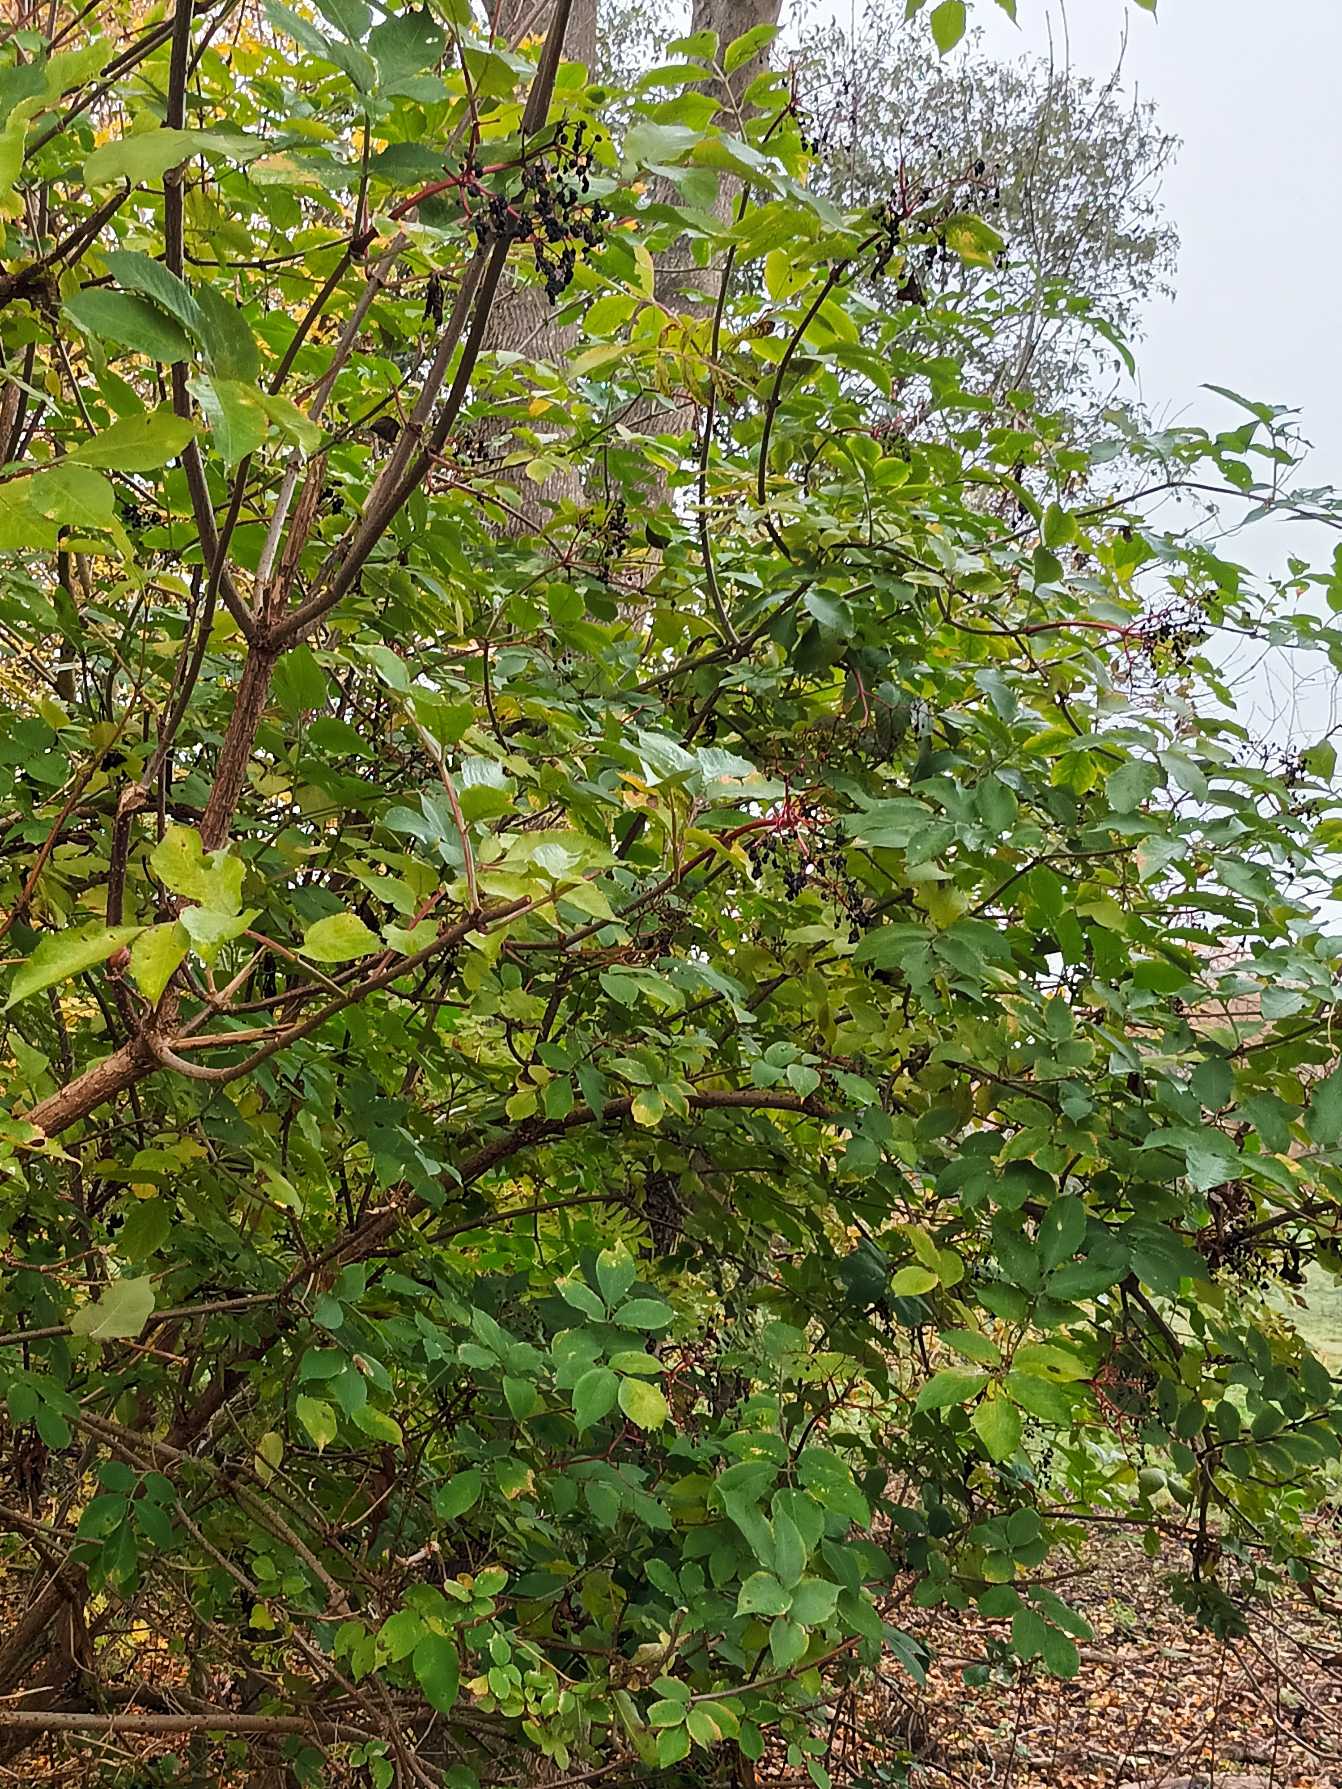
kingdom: Plantae
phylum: Tracheophyta
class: Magnoliopsida
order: Dipsacales
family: Viburnaceae
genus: Sambucus
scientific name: Sambucus nigra
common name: Almindelig hyld
